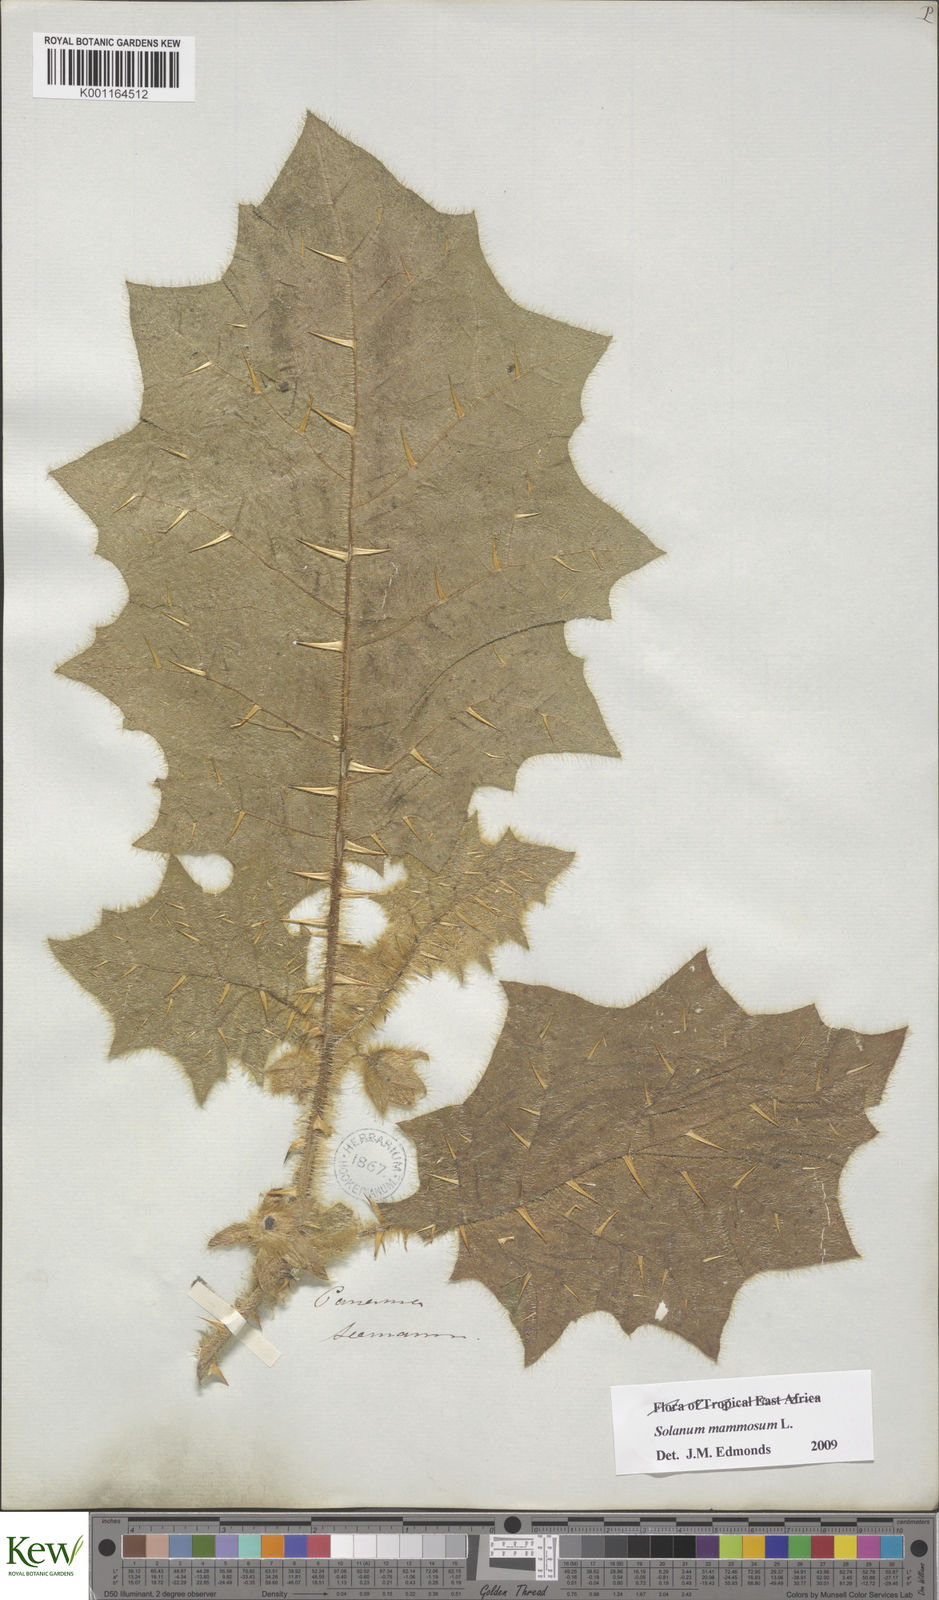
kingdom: Plantae
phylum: Tracheophyta
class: Magnoliopsida
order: Solanales
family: Solanaceae
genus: Solanum
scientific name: Solanum mammosum
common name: Nipple fruit
